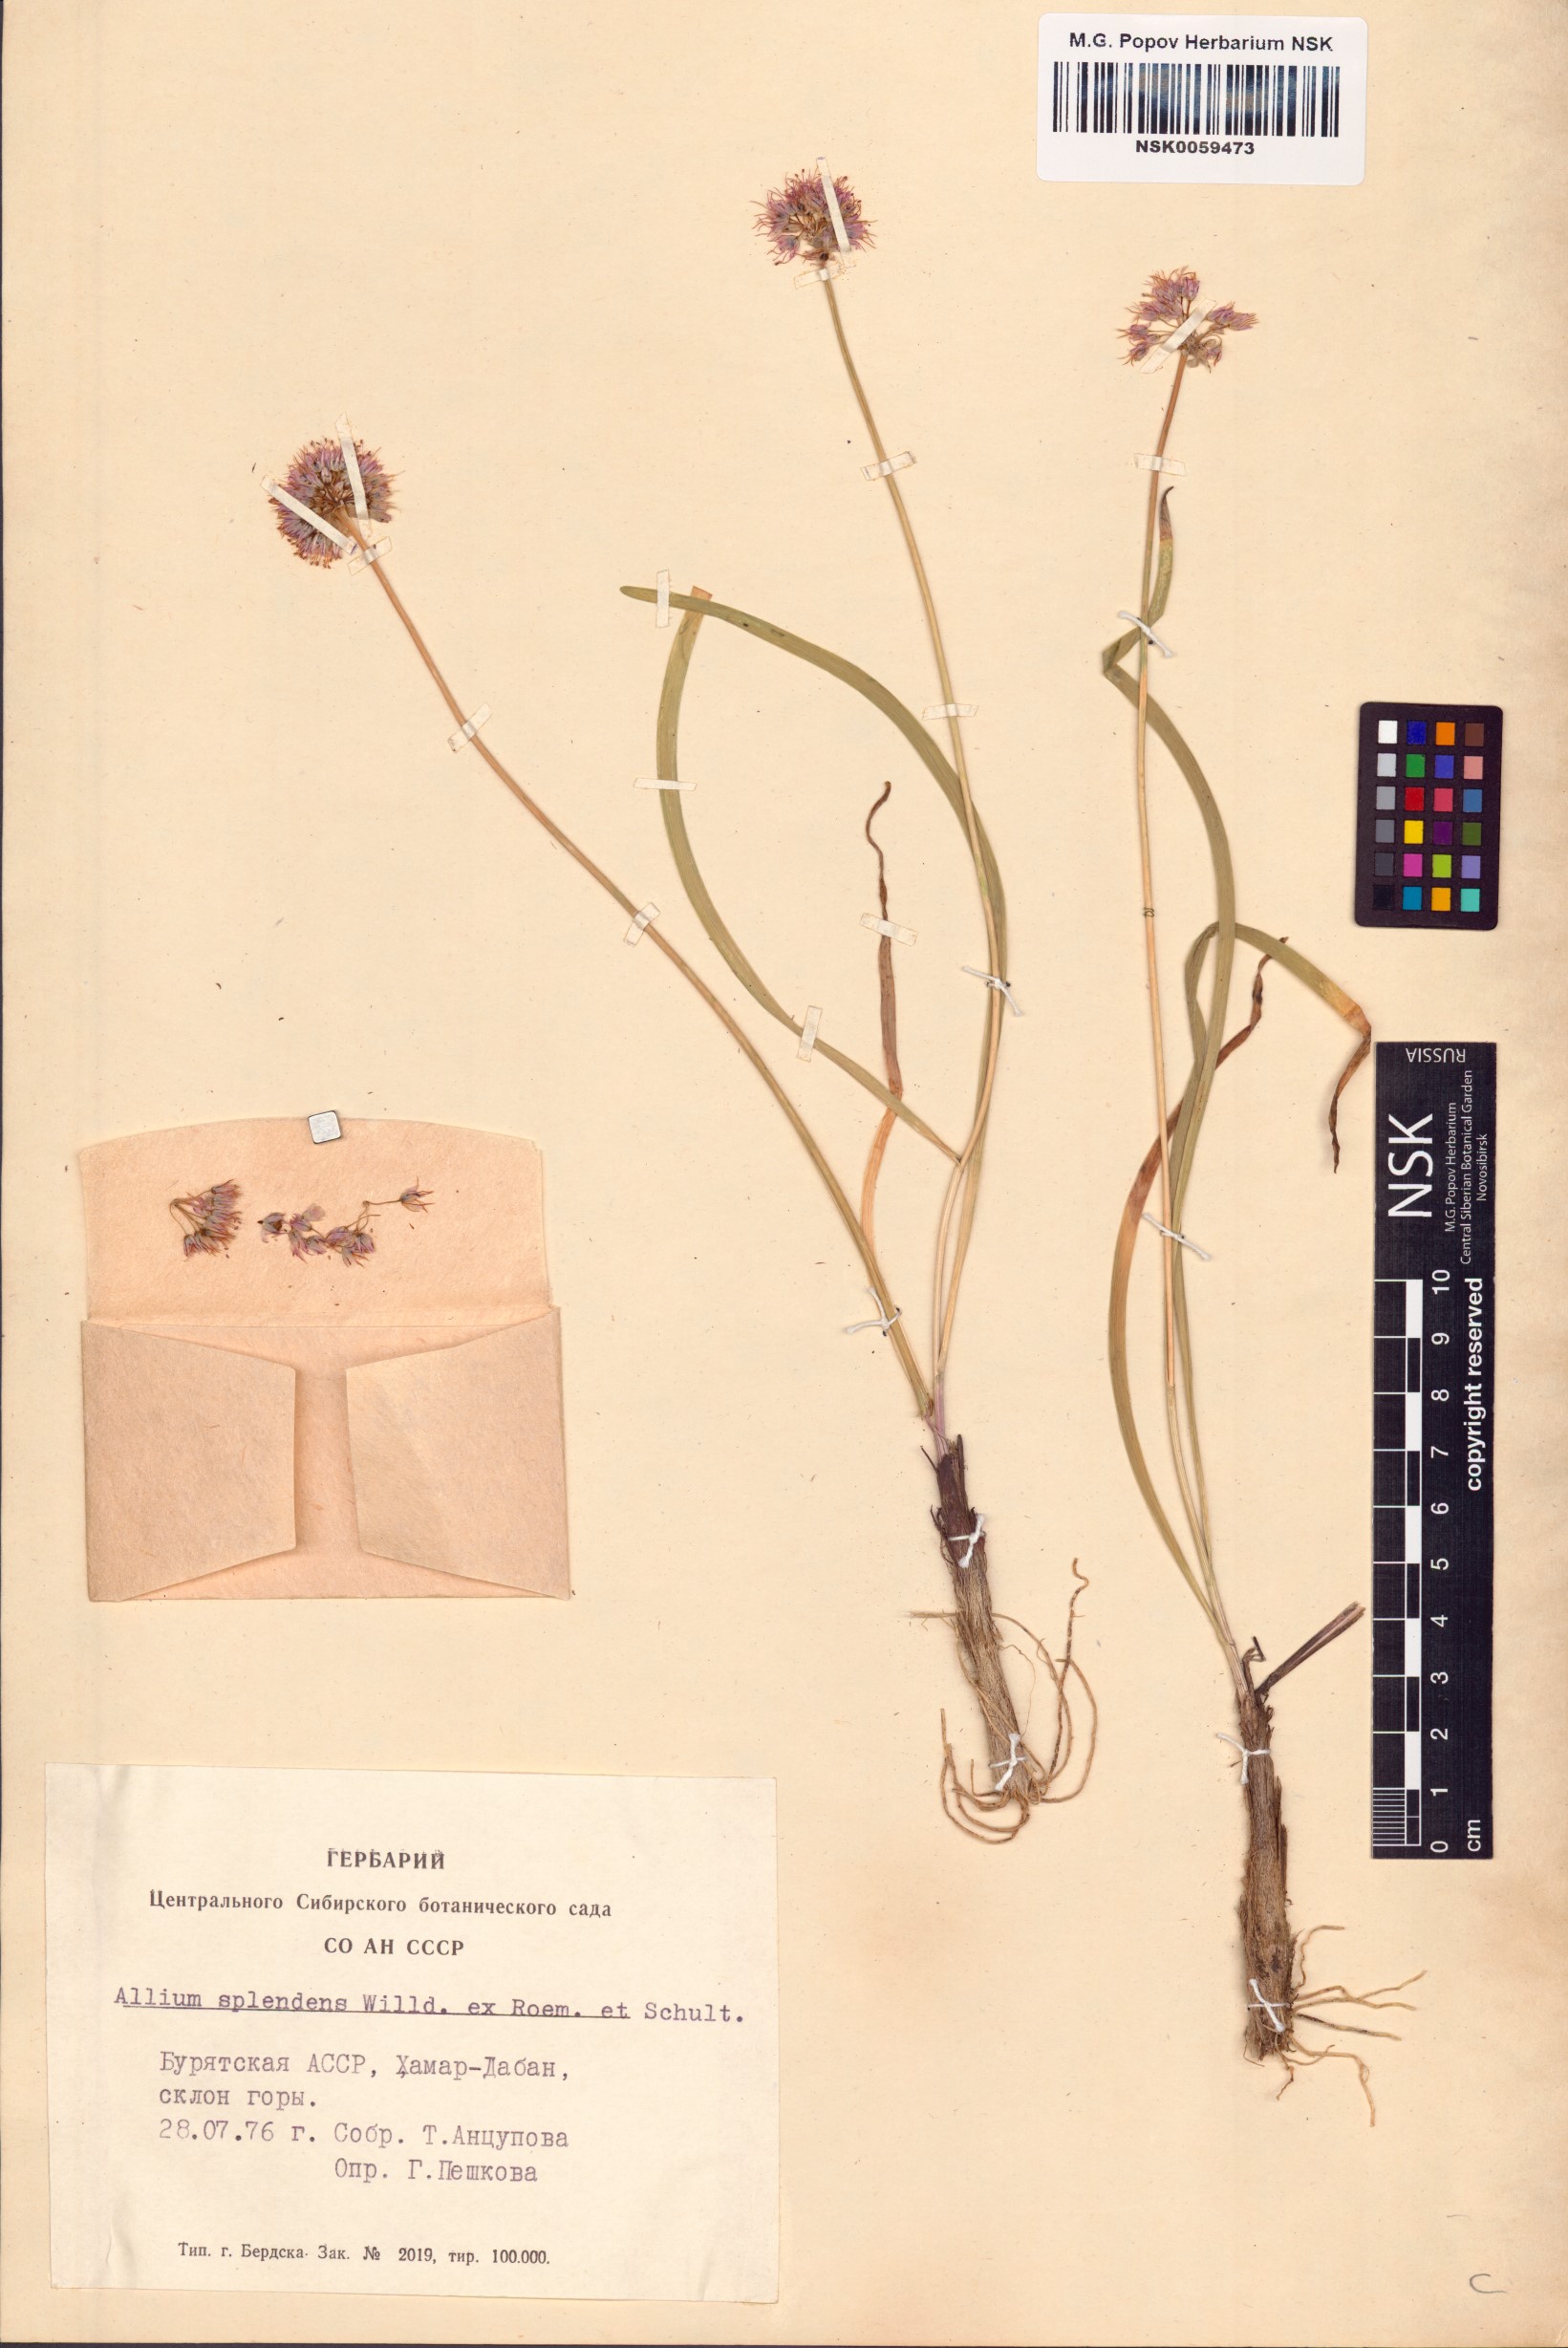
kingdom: Plantae
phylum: Tracheophyta
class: Liliopsida
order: Asparagales
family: Amaryllidaceae
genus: Allium
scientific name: Allium splendens
